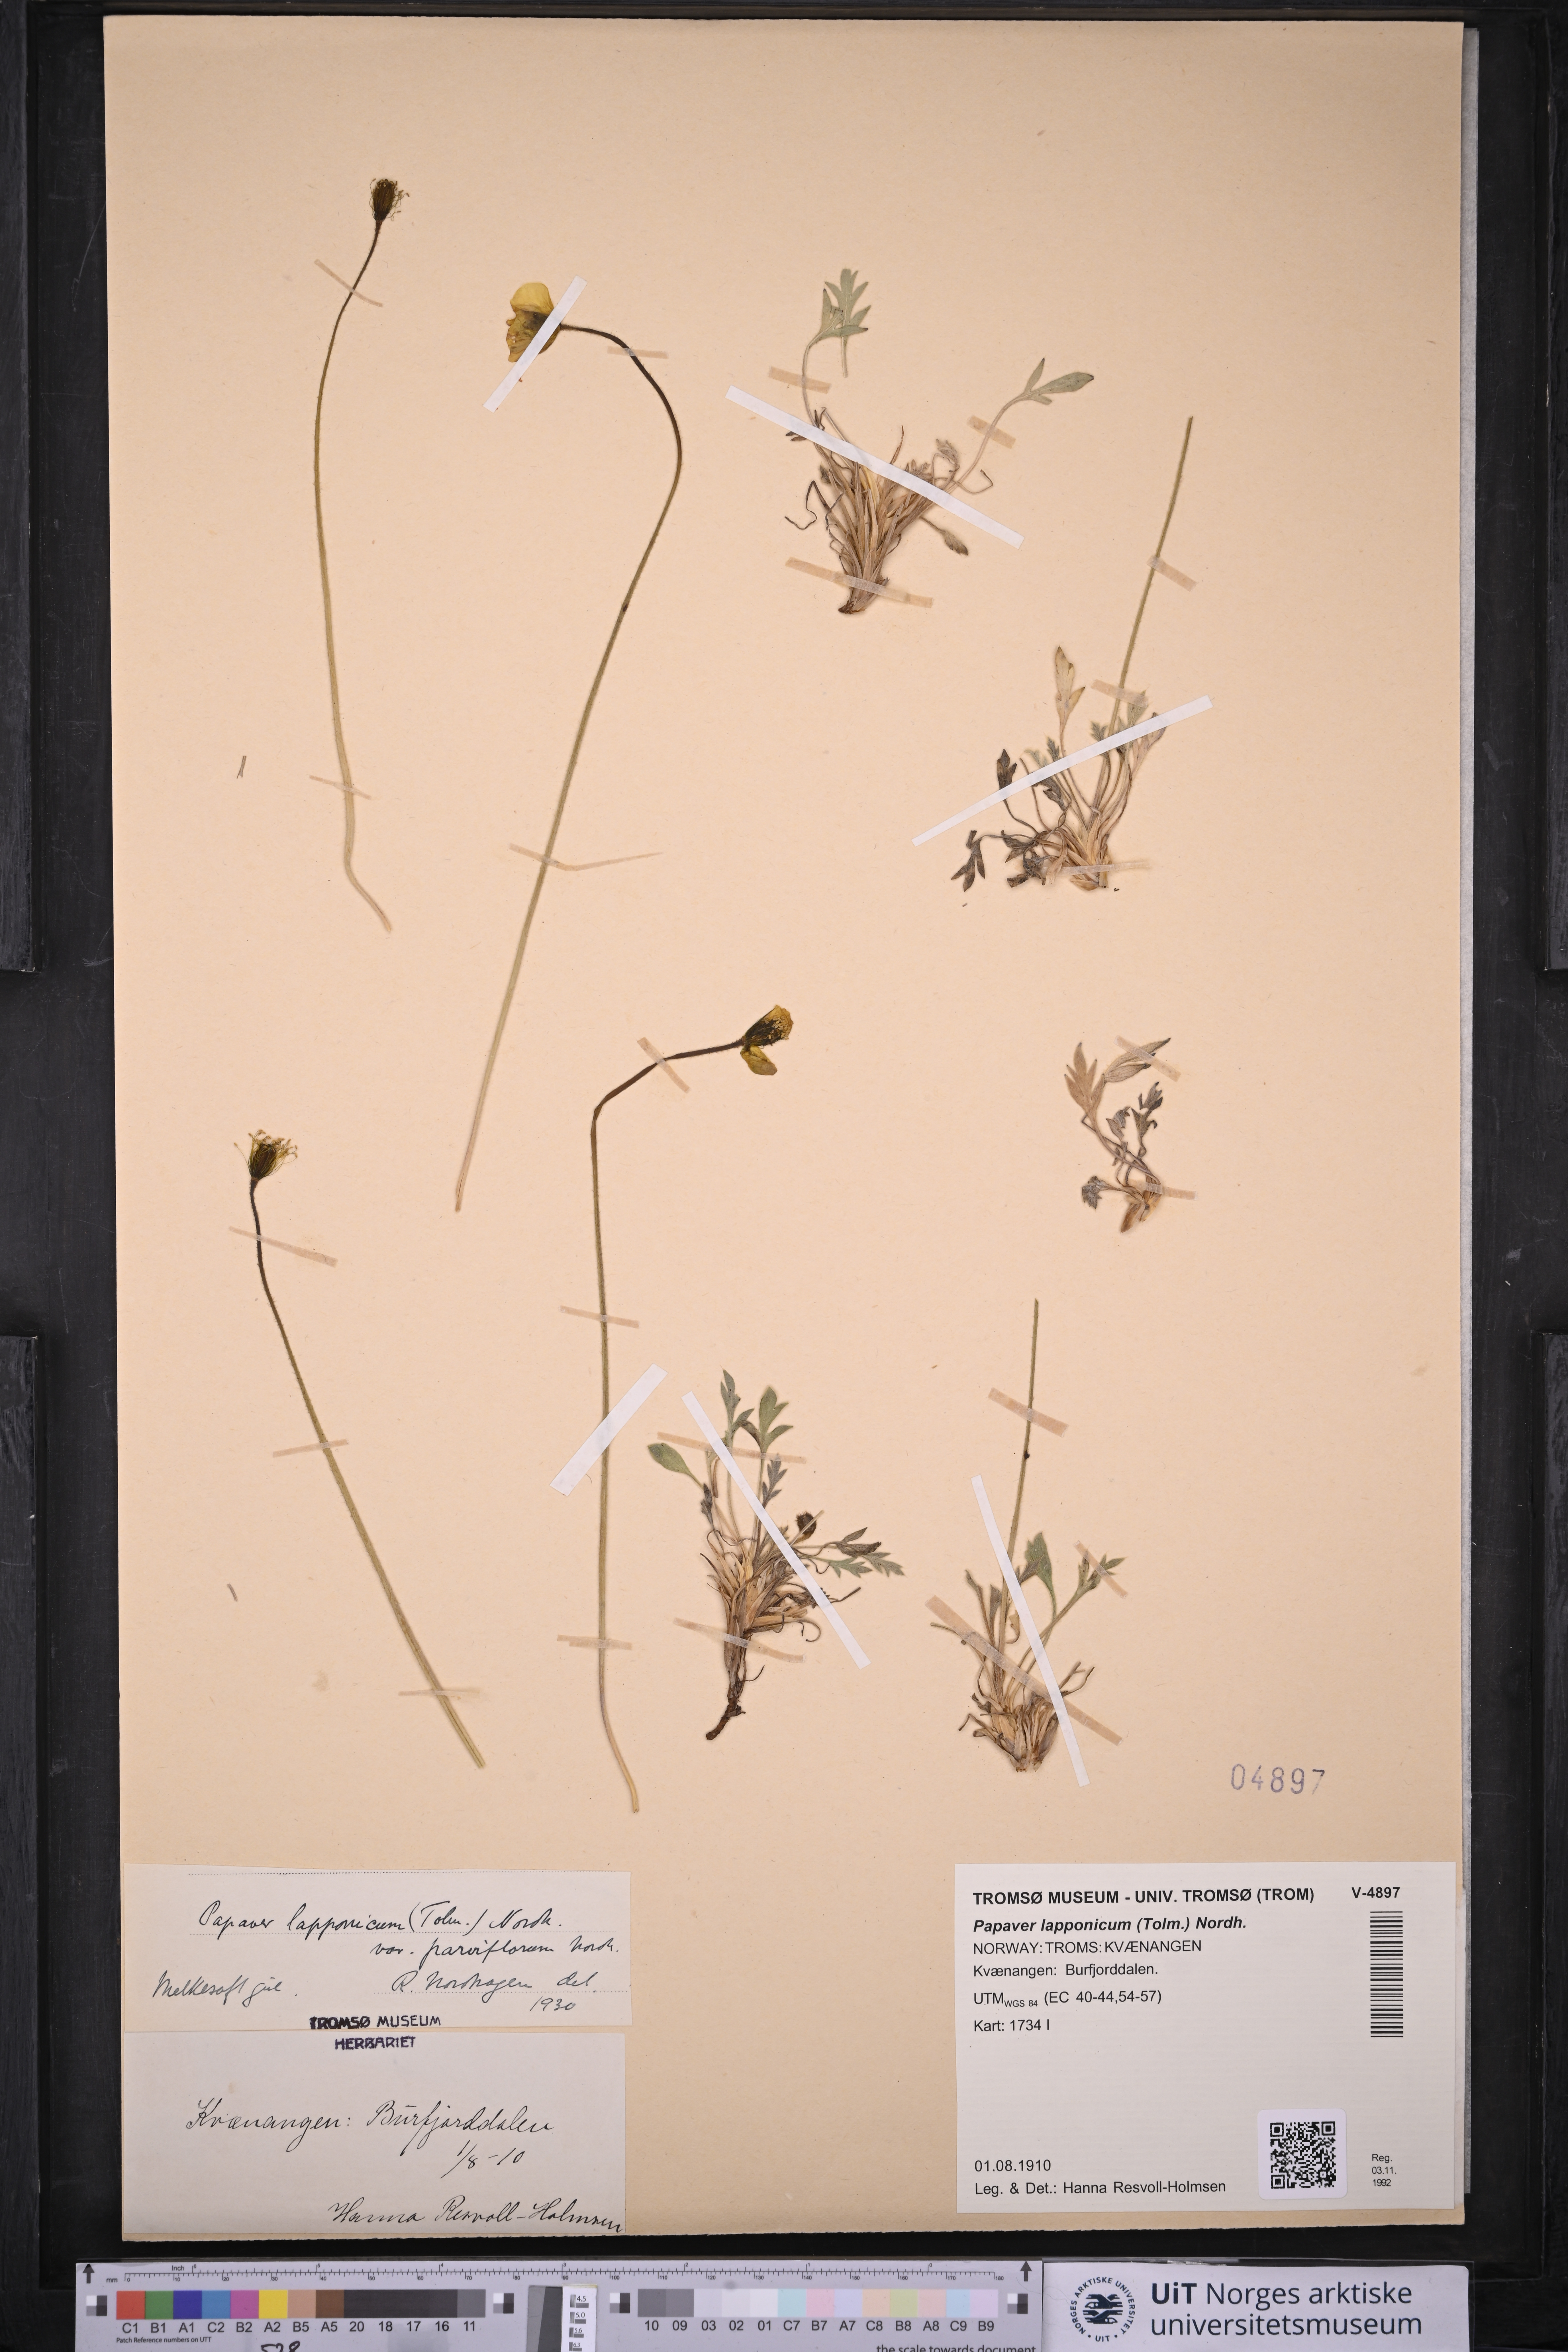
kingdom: Plantae
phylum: Tracheophyta
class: Magnoliopsida
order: Ranunculales
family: Papaveraceae
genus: Papaver
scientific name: Papaver lapponicum
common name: Lapland poppy
